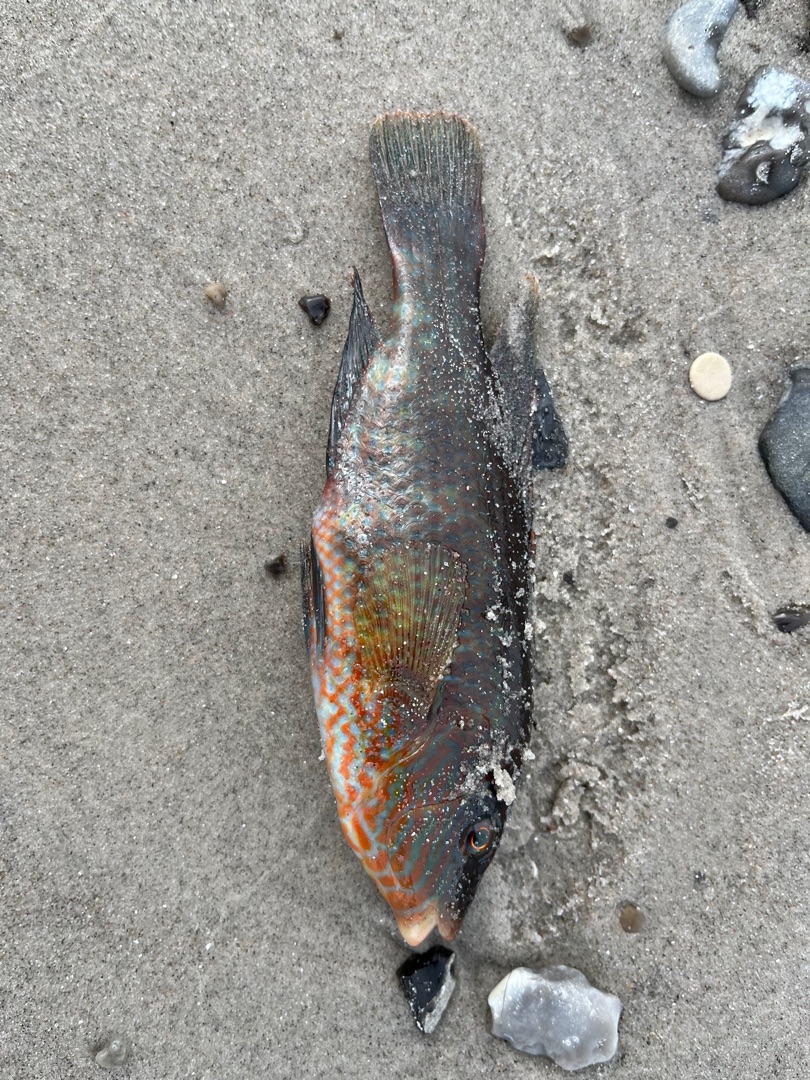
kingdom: Animalia
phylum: Chordata
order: Perciformes
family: Labridae
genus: Symphodus
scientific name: Symphodus melops
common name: Savgylte
